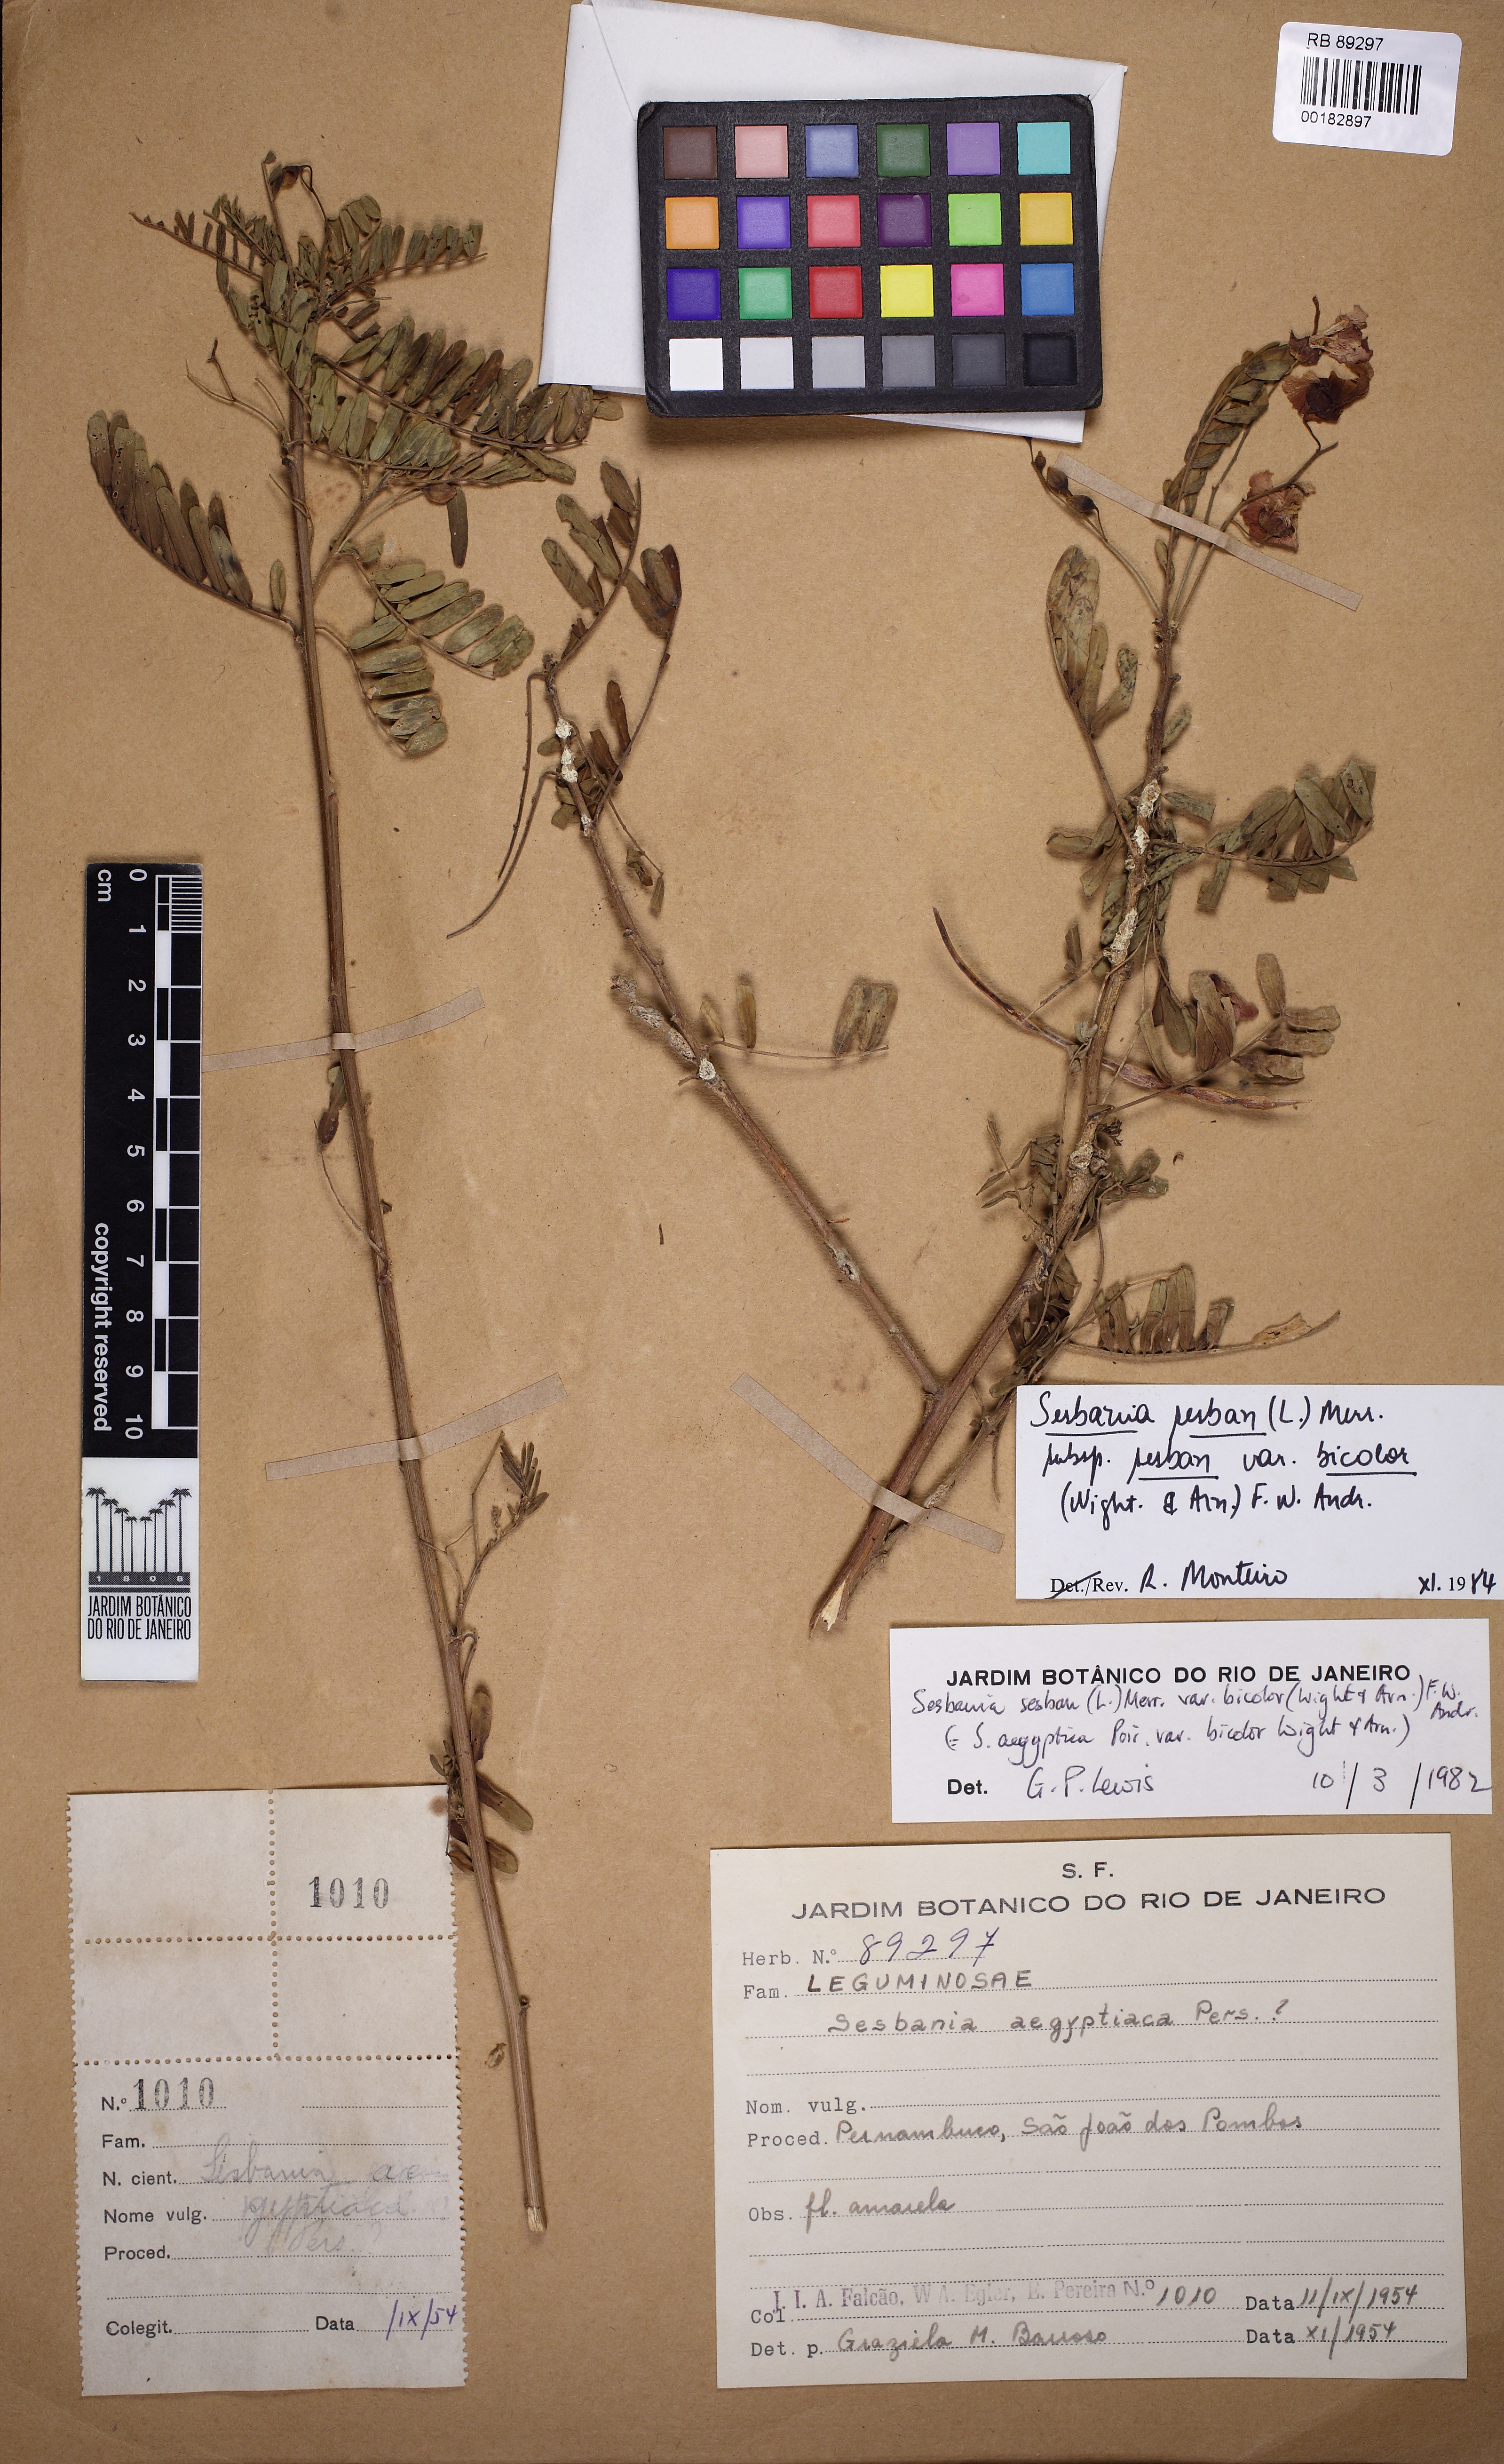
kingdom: Plantae
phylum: Tracheophyta
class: Magnoliopsida
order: Fabales
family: Fabaceae
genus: Sesbania
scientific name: Sesbania sesban
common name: Egyptian sesban
